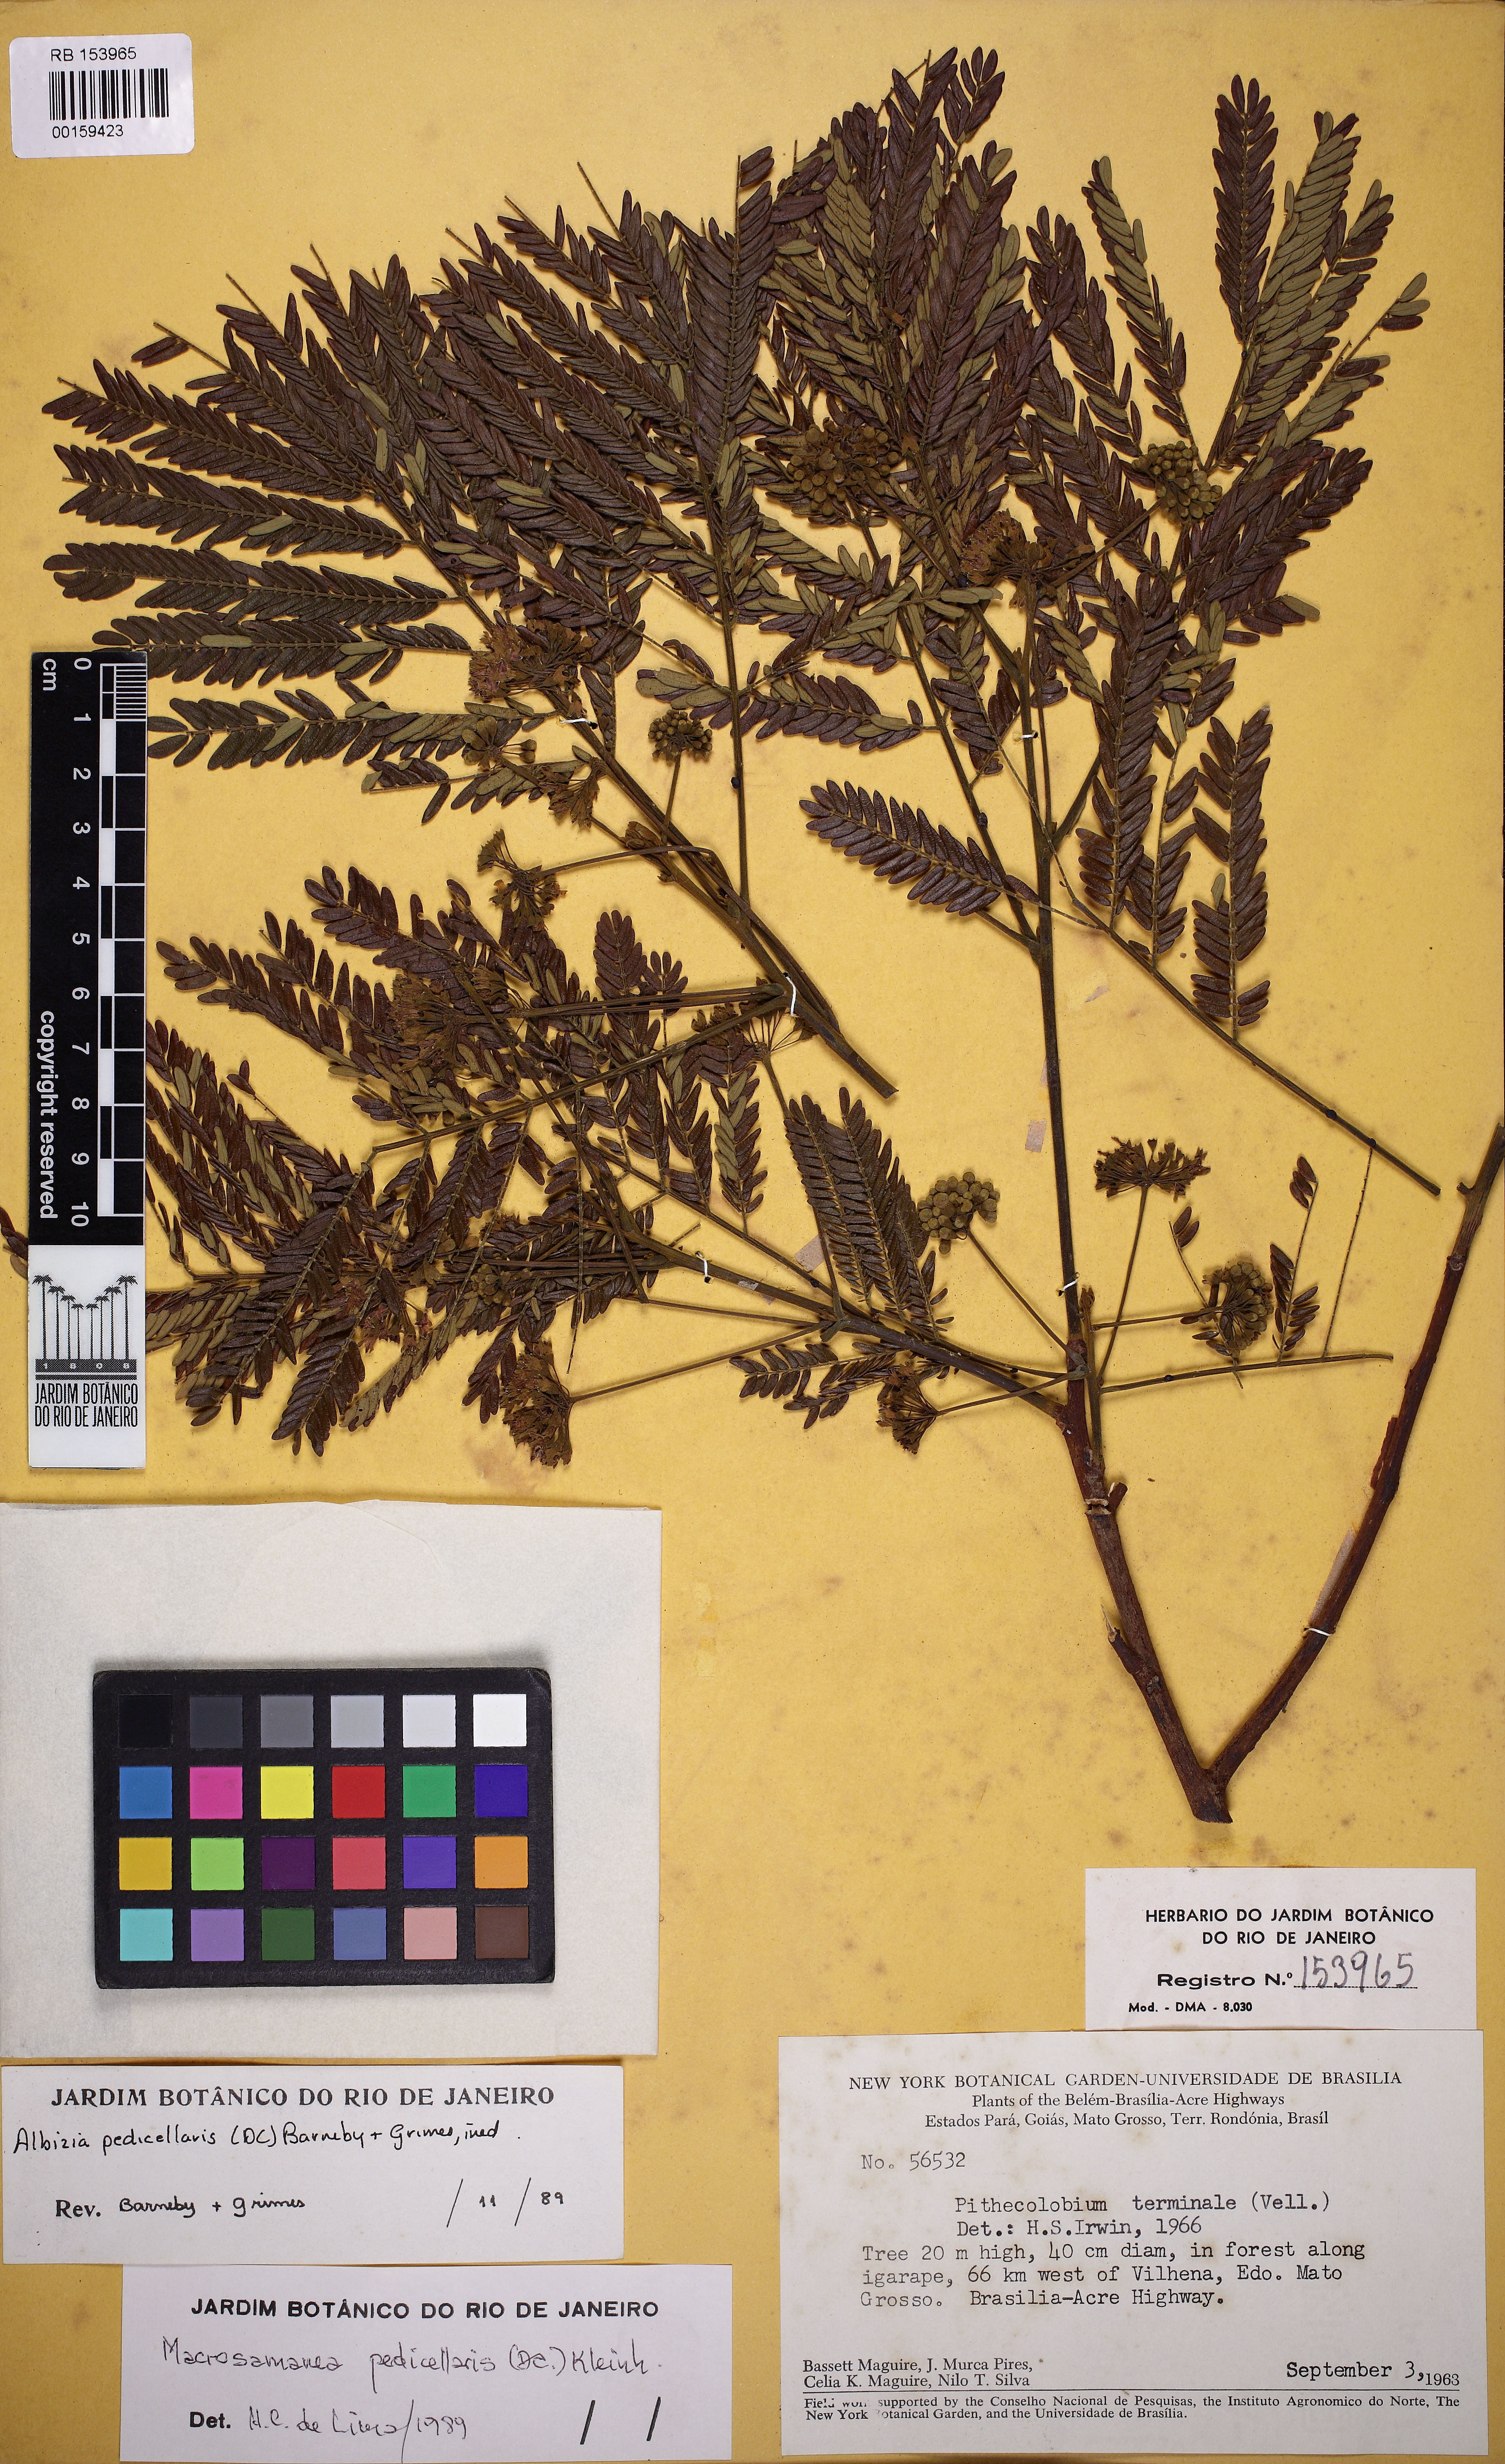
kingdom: Plantae
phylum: Tracheophyta
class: Magnoliopsida
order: Fabales
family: Fabaceae
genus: Balizia
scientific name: Balizia pedicellaris
